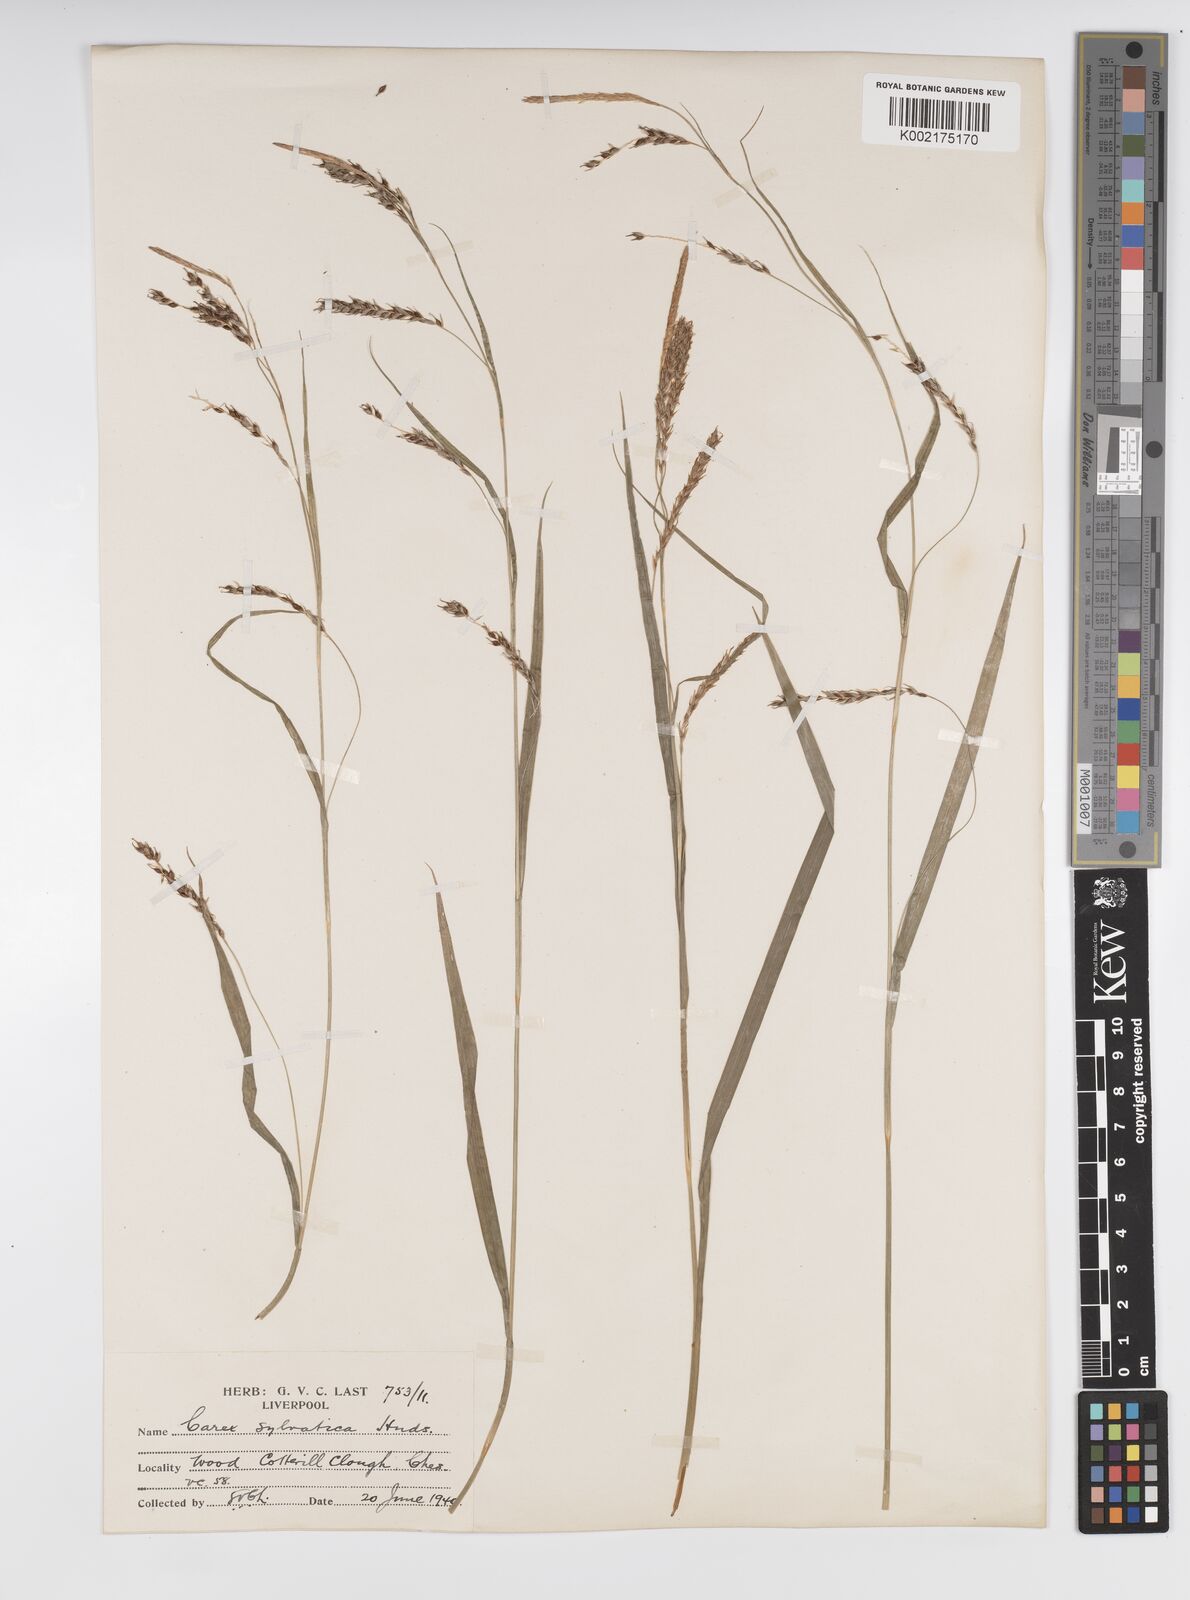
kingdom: Plantae
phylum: Tracheophyta
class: Liliopsida
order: Poales
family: Cyperaceae
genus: Carex
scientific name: Carex sylvatica
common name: Wood-sedge
